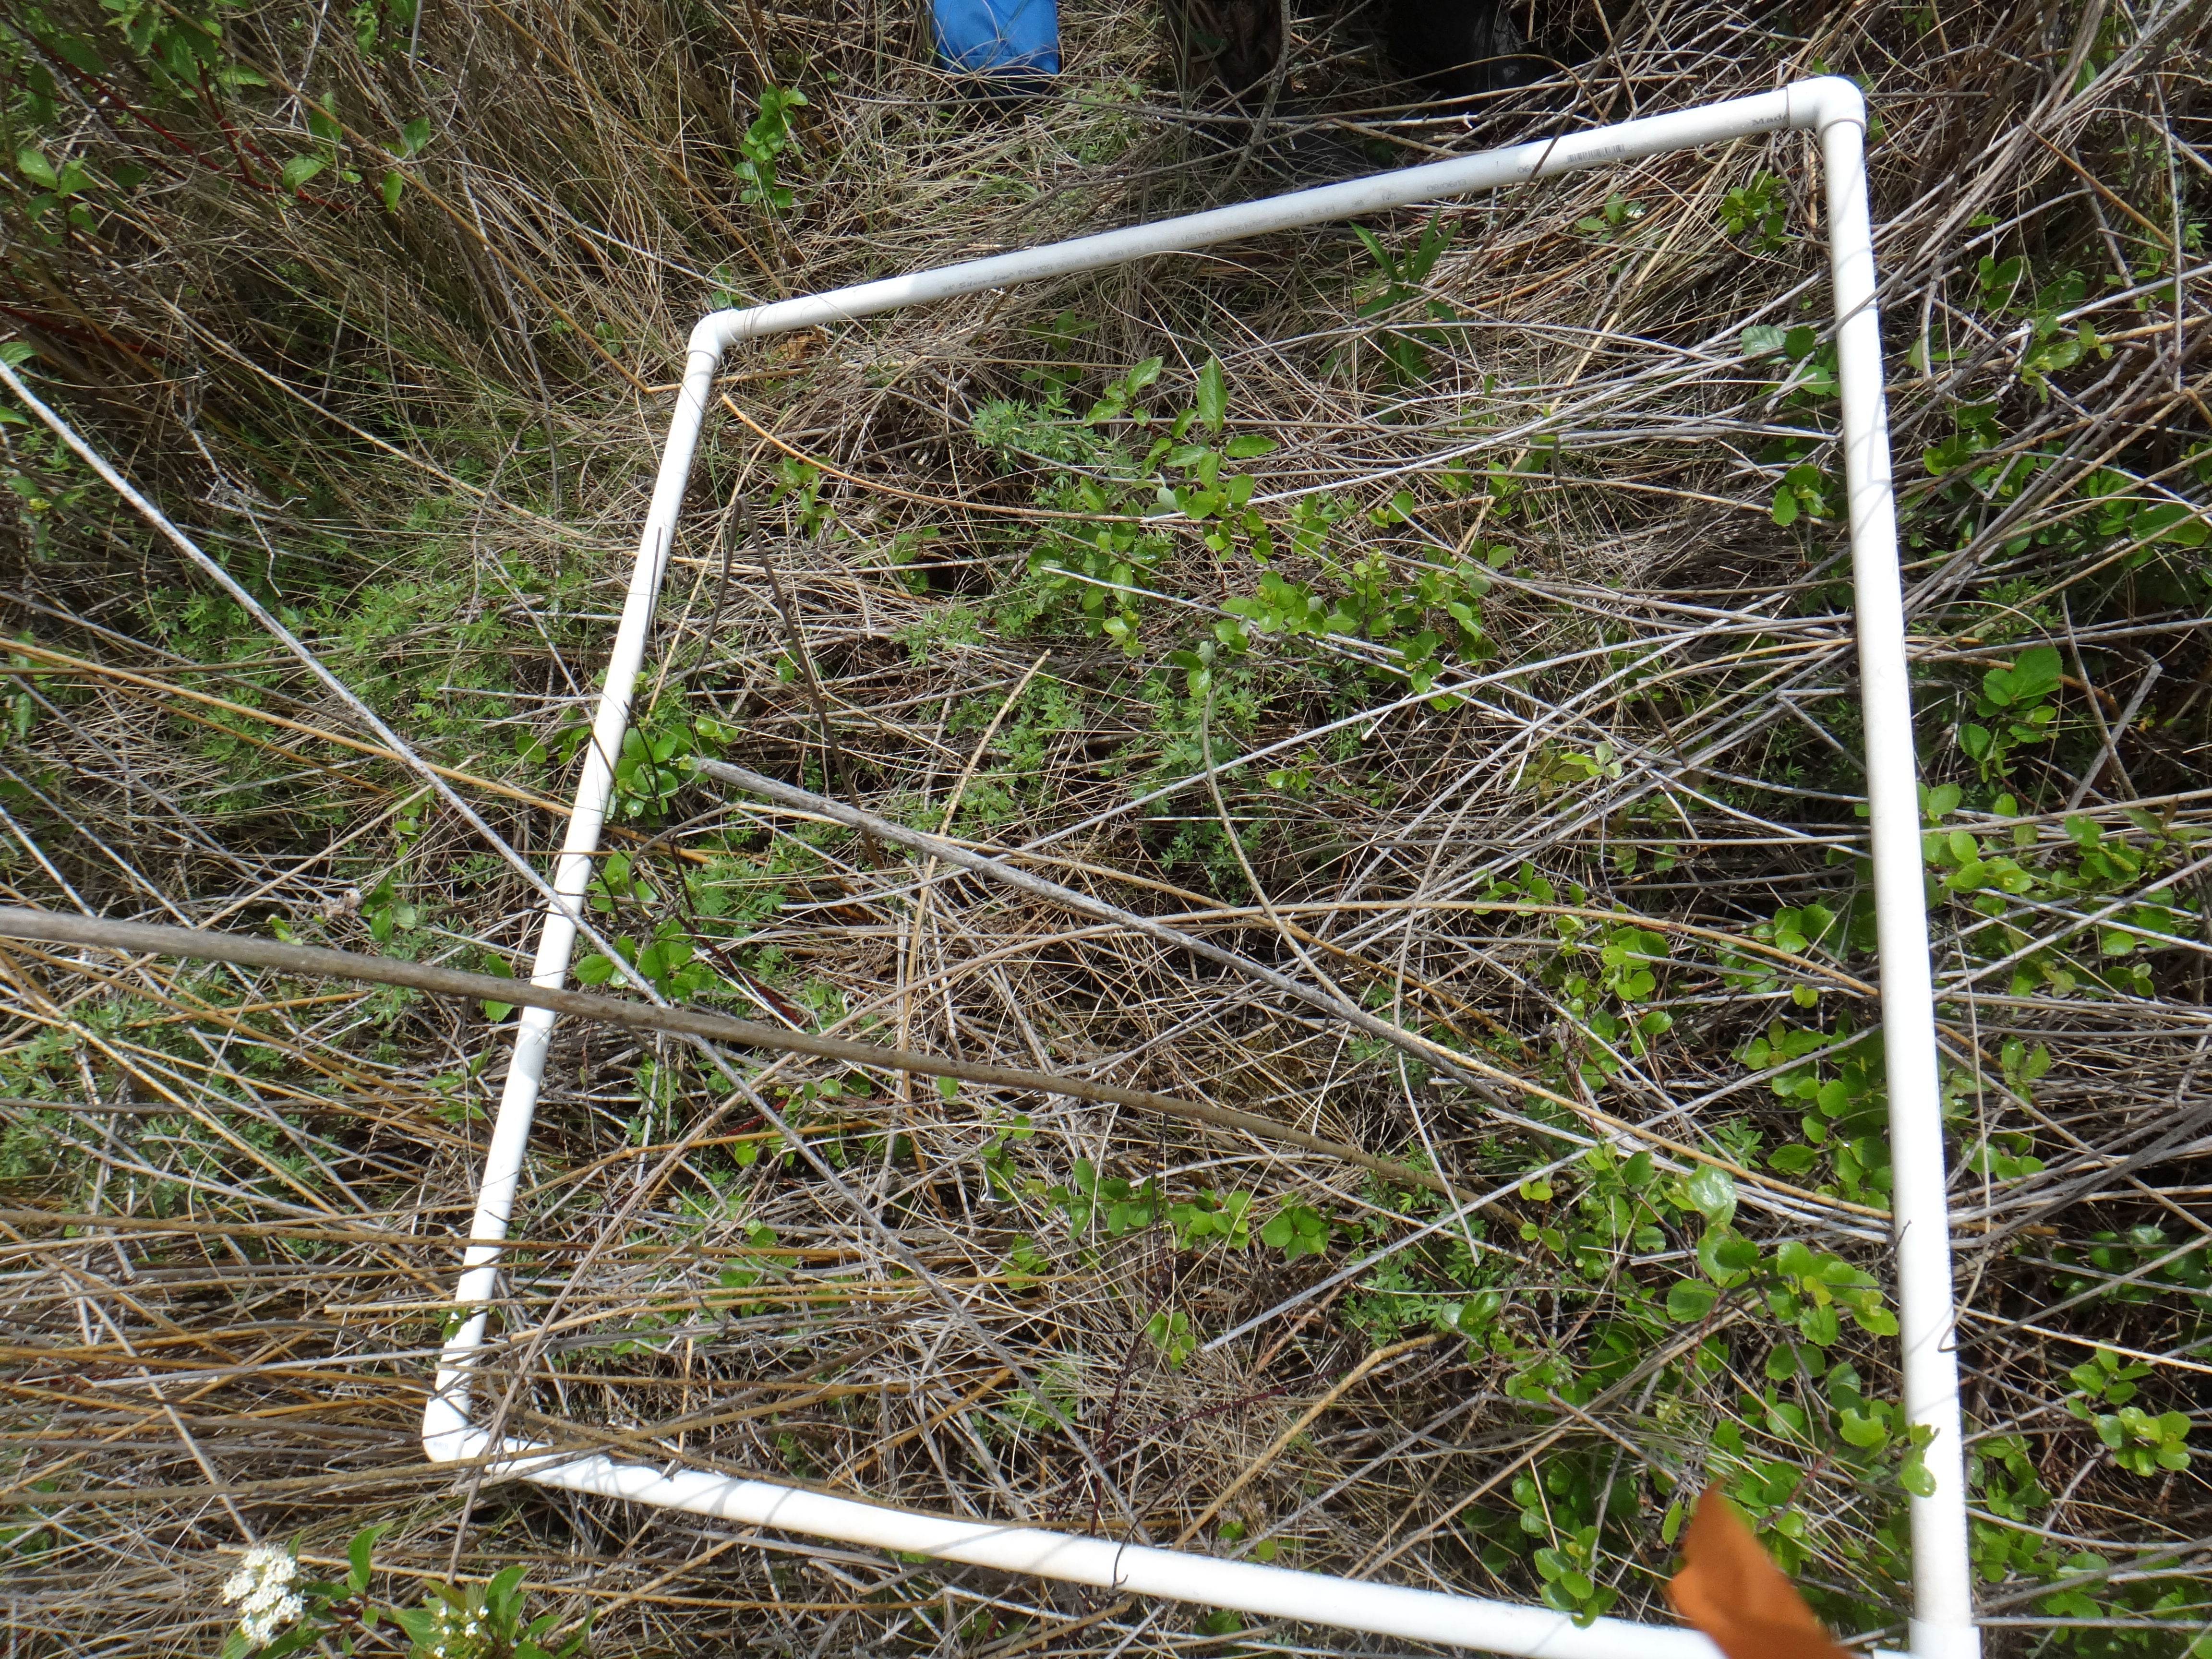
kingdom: Plantae
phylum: Tracheophyta
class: Magnoliopsida
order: Cornales
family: Cornaceae
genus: Cornus
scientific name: Cornus sericea
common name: Red-osier dogwood
